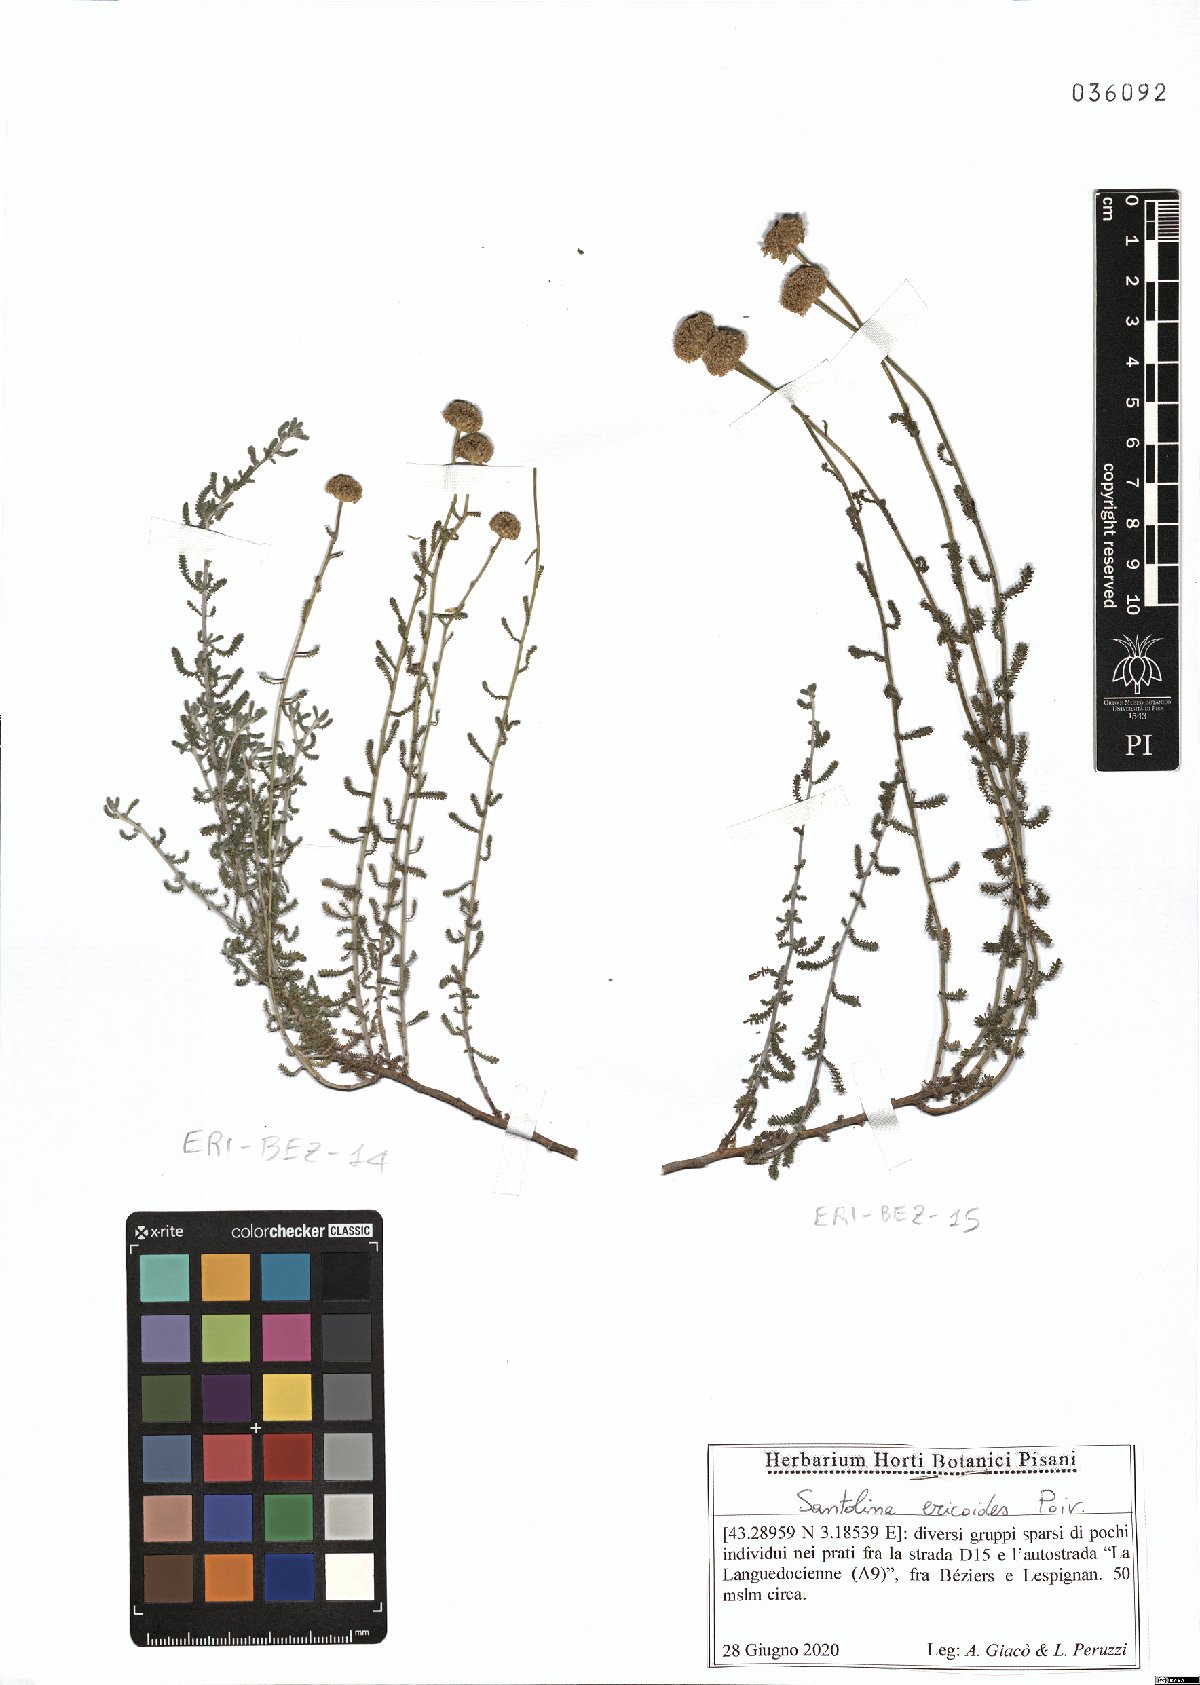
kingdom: Plantae
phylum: Tracheophyta
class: Magnoliopsida
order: Asterales
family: Asteraceae
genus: Santolina
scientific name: Santolina ericoides
